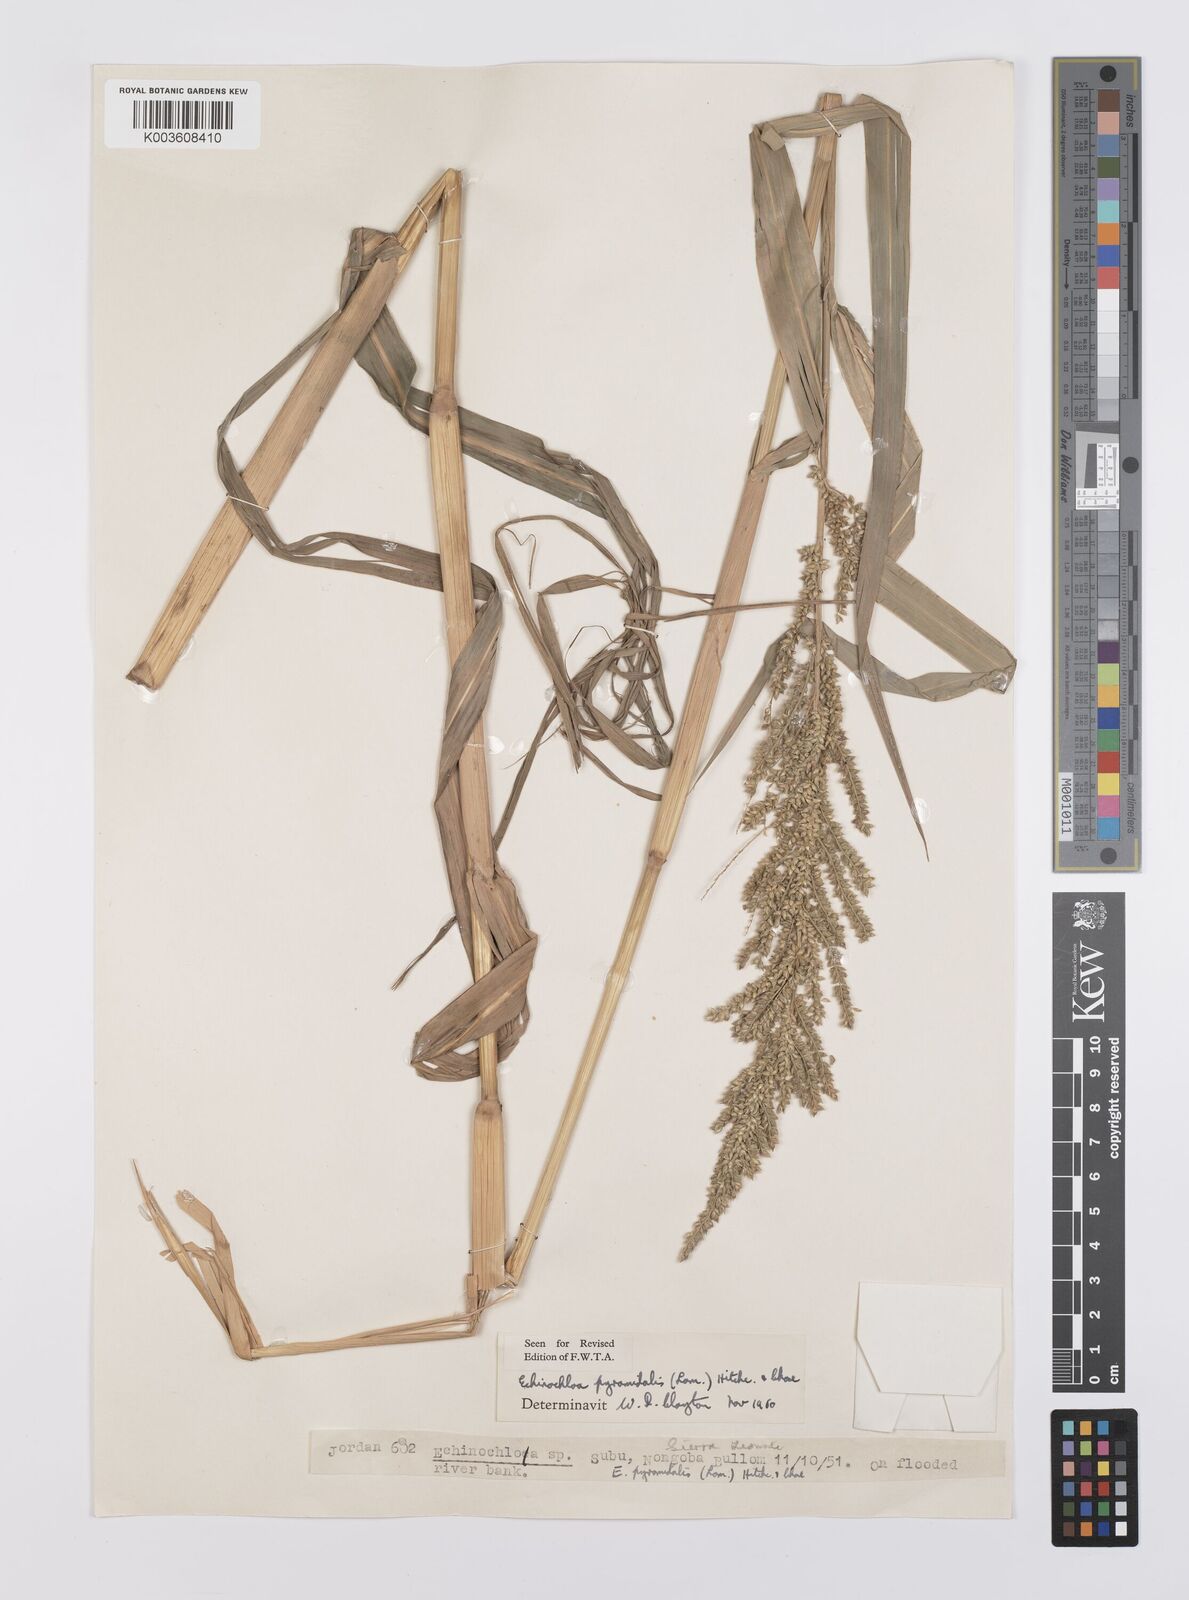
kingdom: Plantae
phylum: Tracheophyta
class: Liliopsida
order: Poales
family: Poaceae
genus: Echinochloa
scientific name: Echinochloa pyramidalis
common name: Antelope grass
